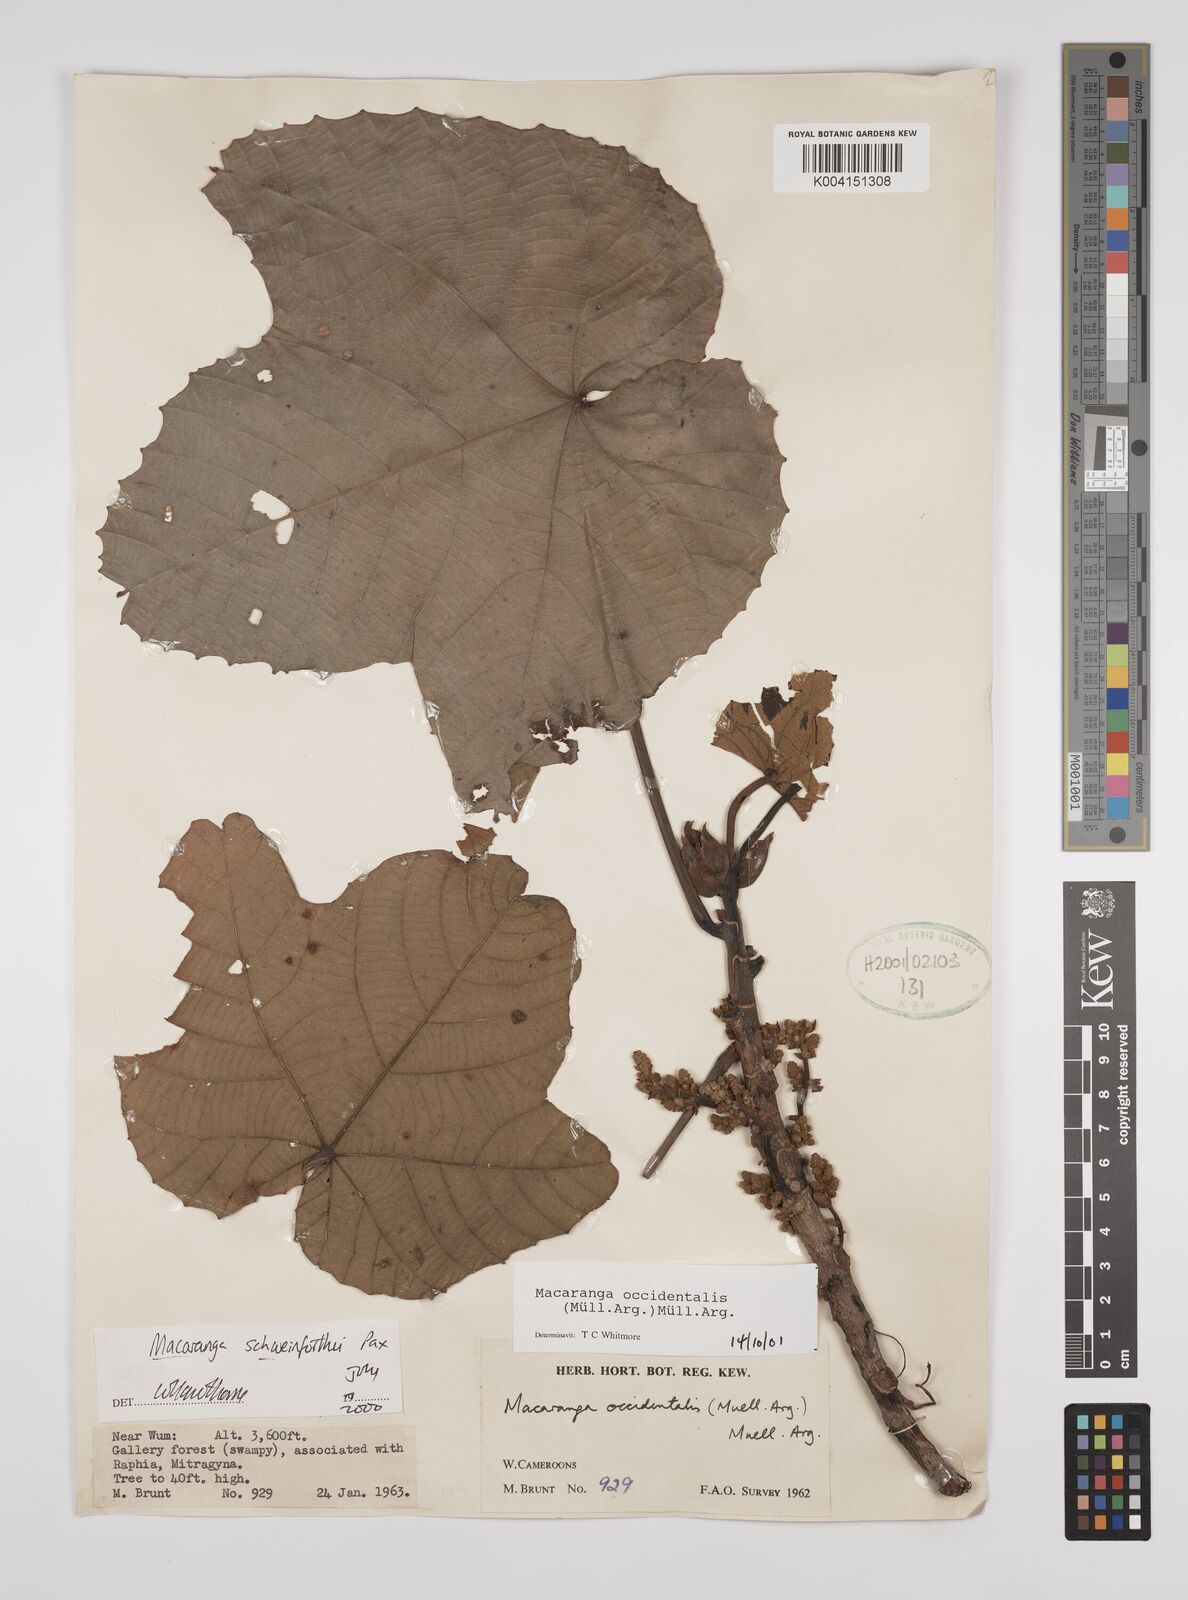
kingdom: Plantae
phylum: Tracheophyta
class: Magnoliopsida
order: Malpighiales
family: Euphorbiaceae
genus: Macaranga
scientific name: Macaranga occidentalis
